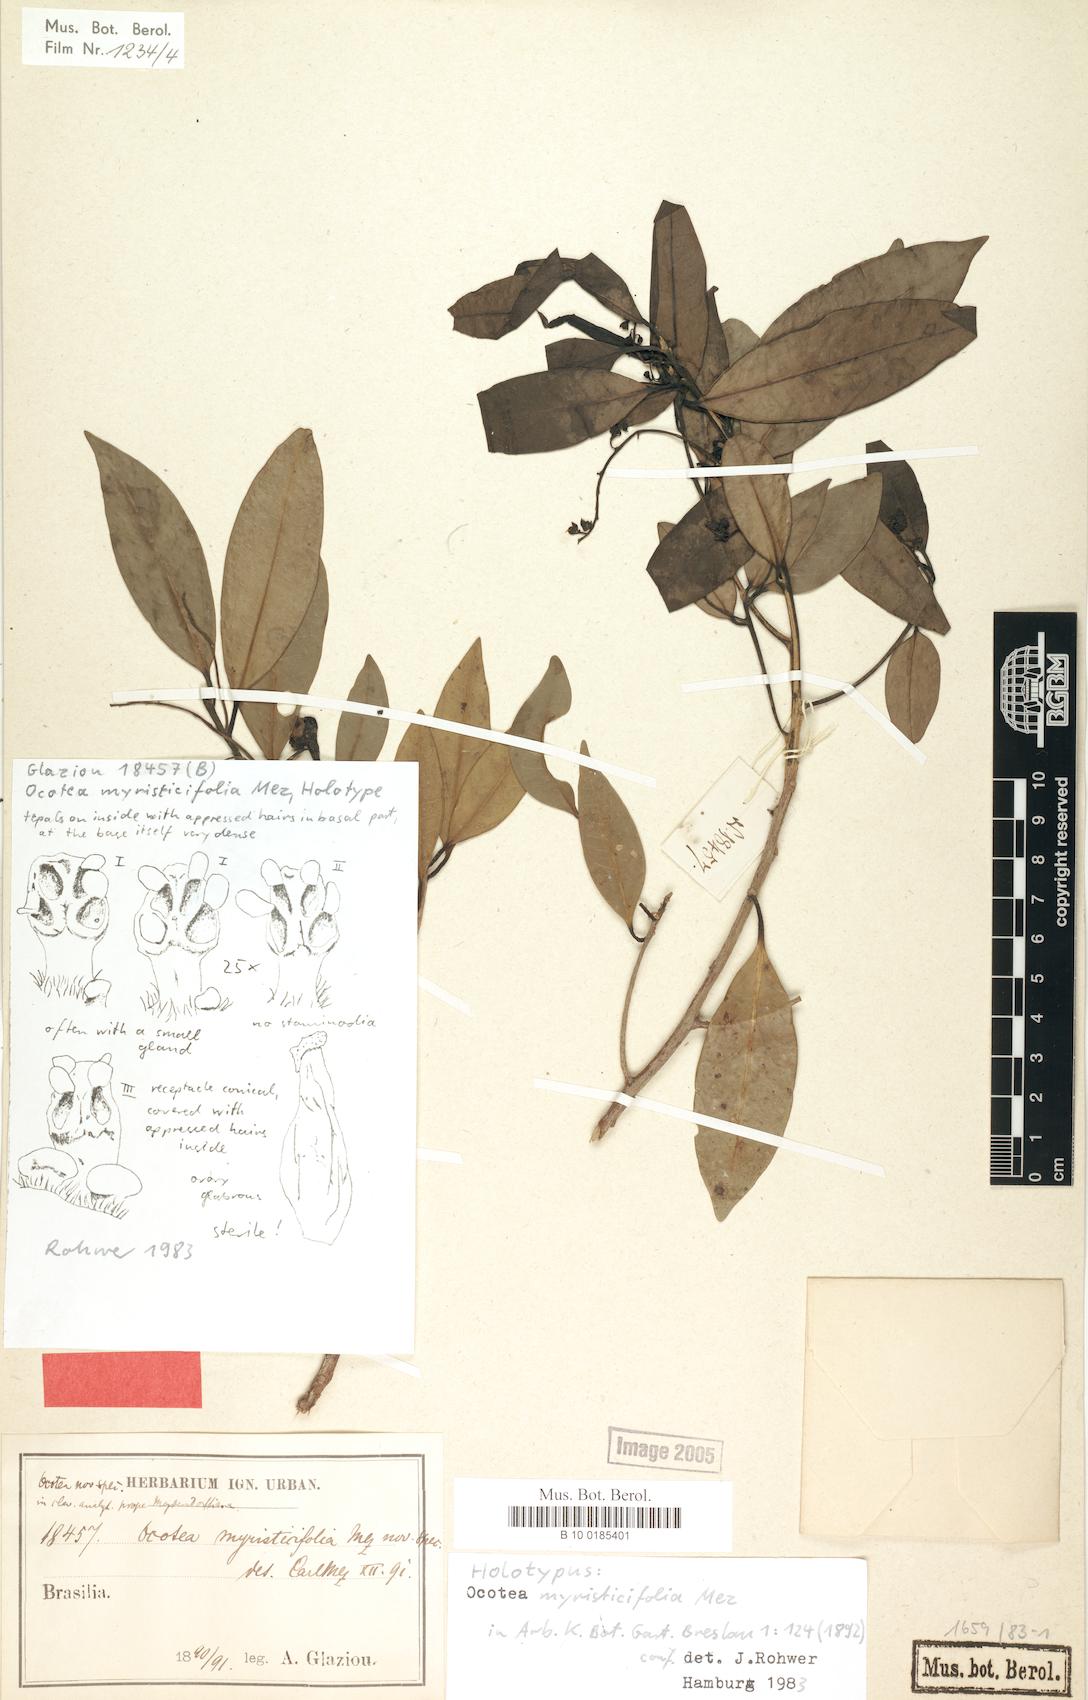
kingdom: Plantae
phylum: Tracheophyta
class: Magnoliopsida
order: Laurales
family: Lauraceae
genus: Ocotea
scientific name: Ocotea schwackeana
